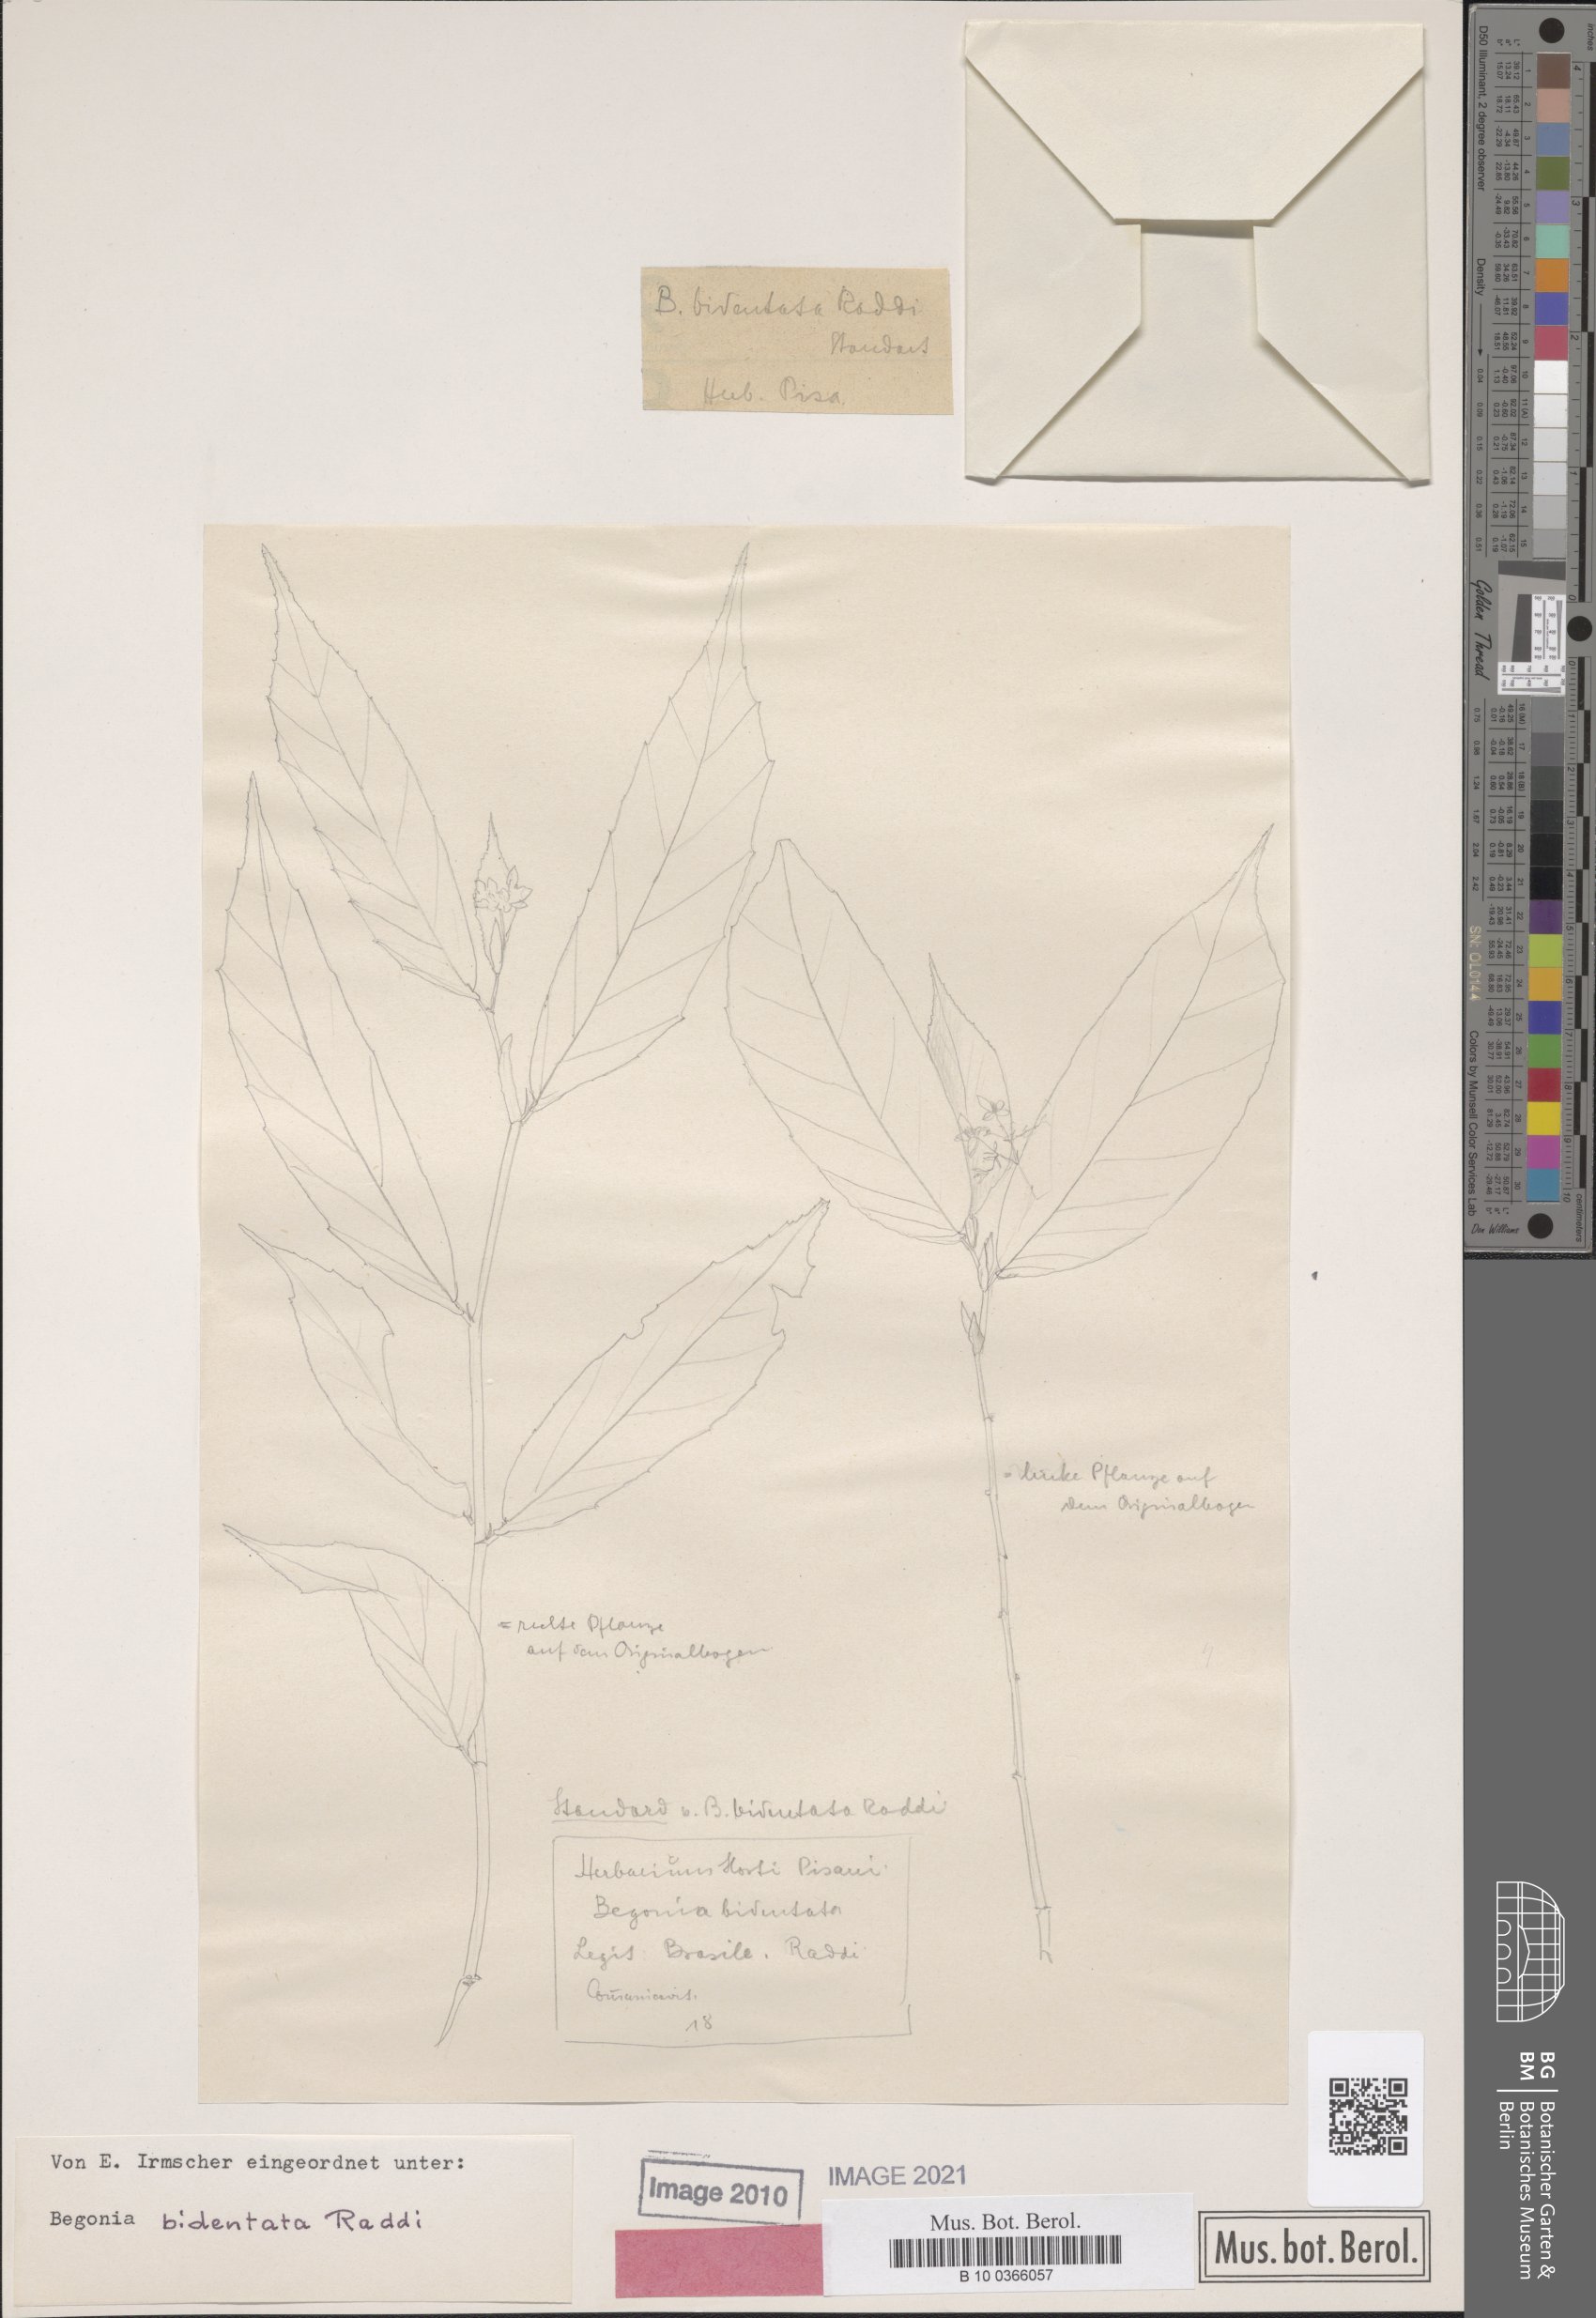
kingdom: Plantae
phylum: Tracheophyta
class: Magnoliopsida
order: Cucurbitales
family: Begoniaceae
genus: Begonia
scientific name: Begonia bidentata
